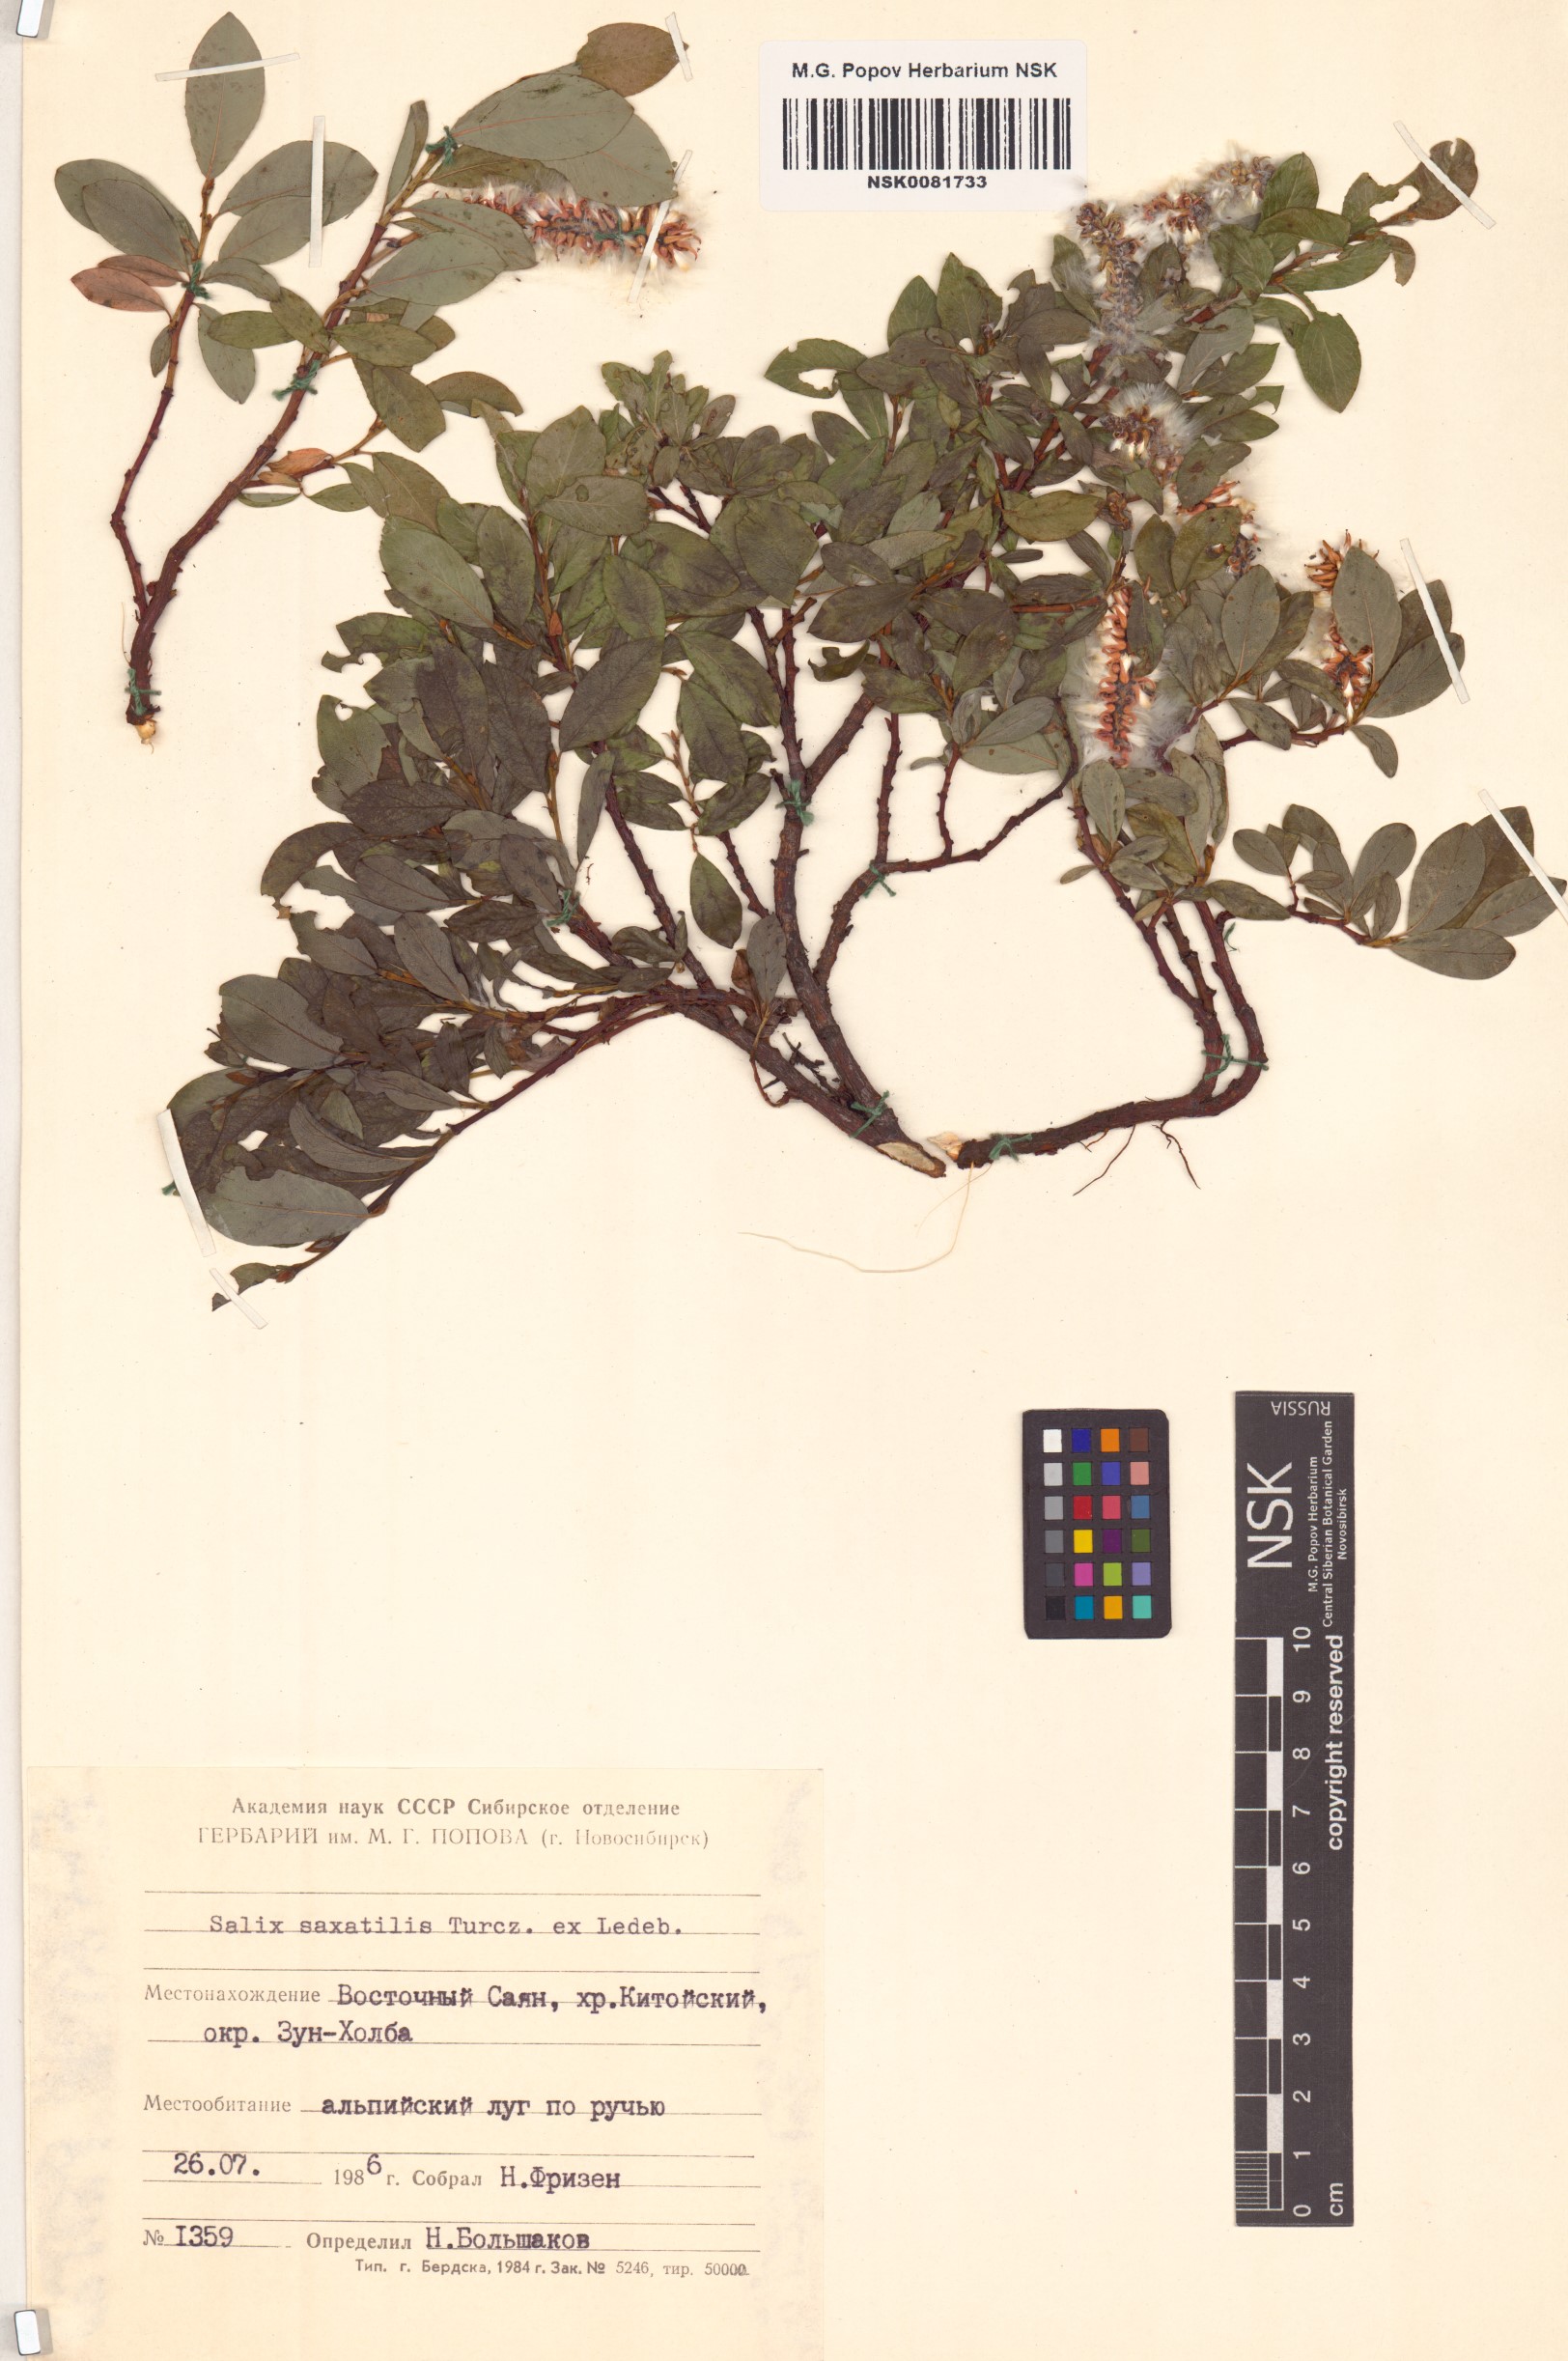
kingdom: Plantae
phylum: Tracheophyta
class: Magnoliopsida
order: Malpighiales
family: Salicaceae
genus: Salix
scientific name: Salix saxatilis
